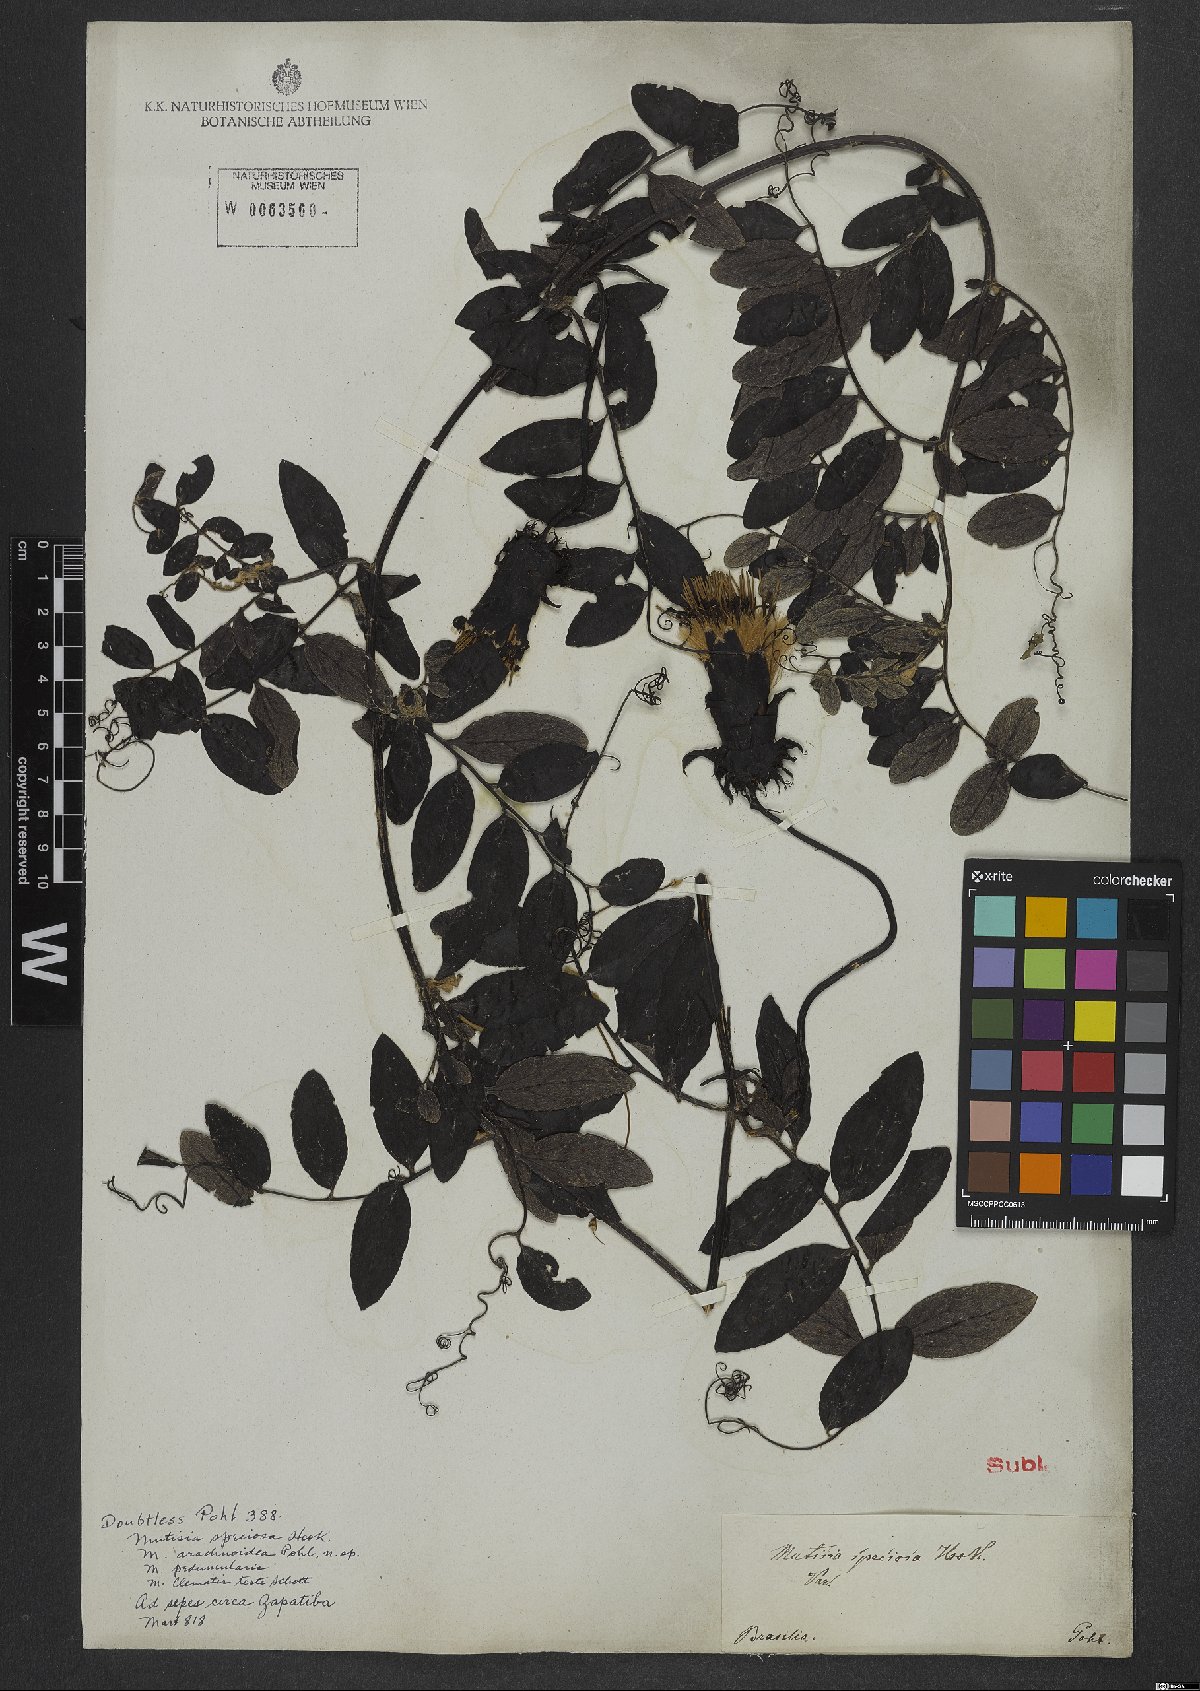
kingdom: Plantae
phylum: Tracheophyta
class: Magnoliopsida
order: Asterales
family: Asteraceae
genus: Mutisia
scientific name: Mutisia speciosa
